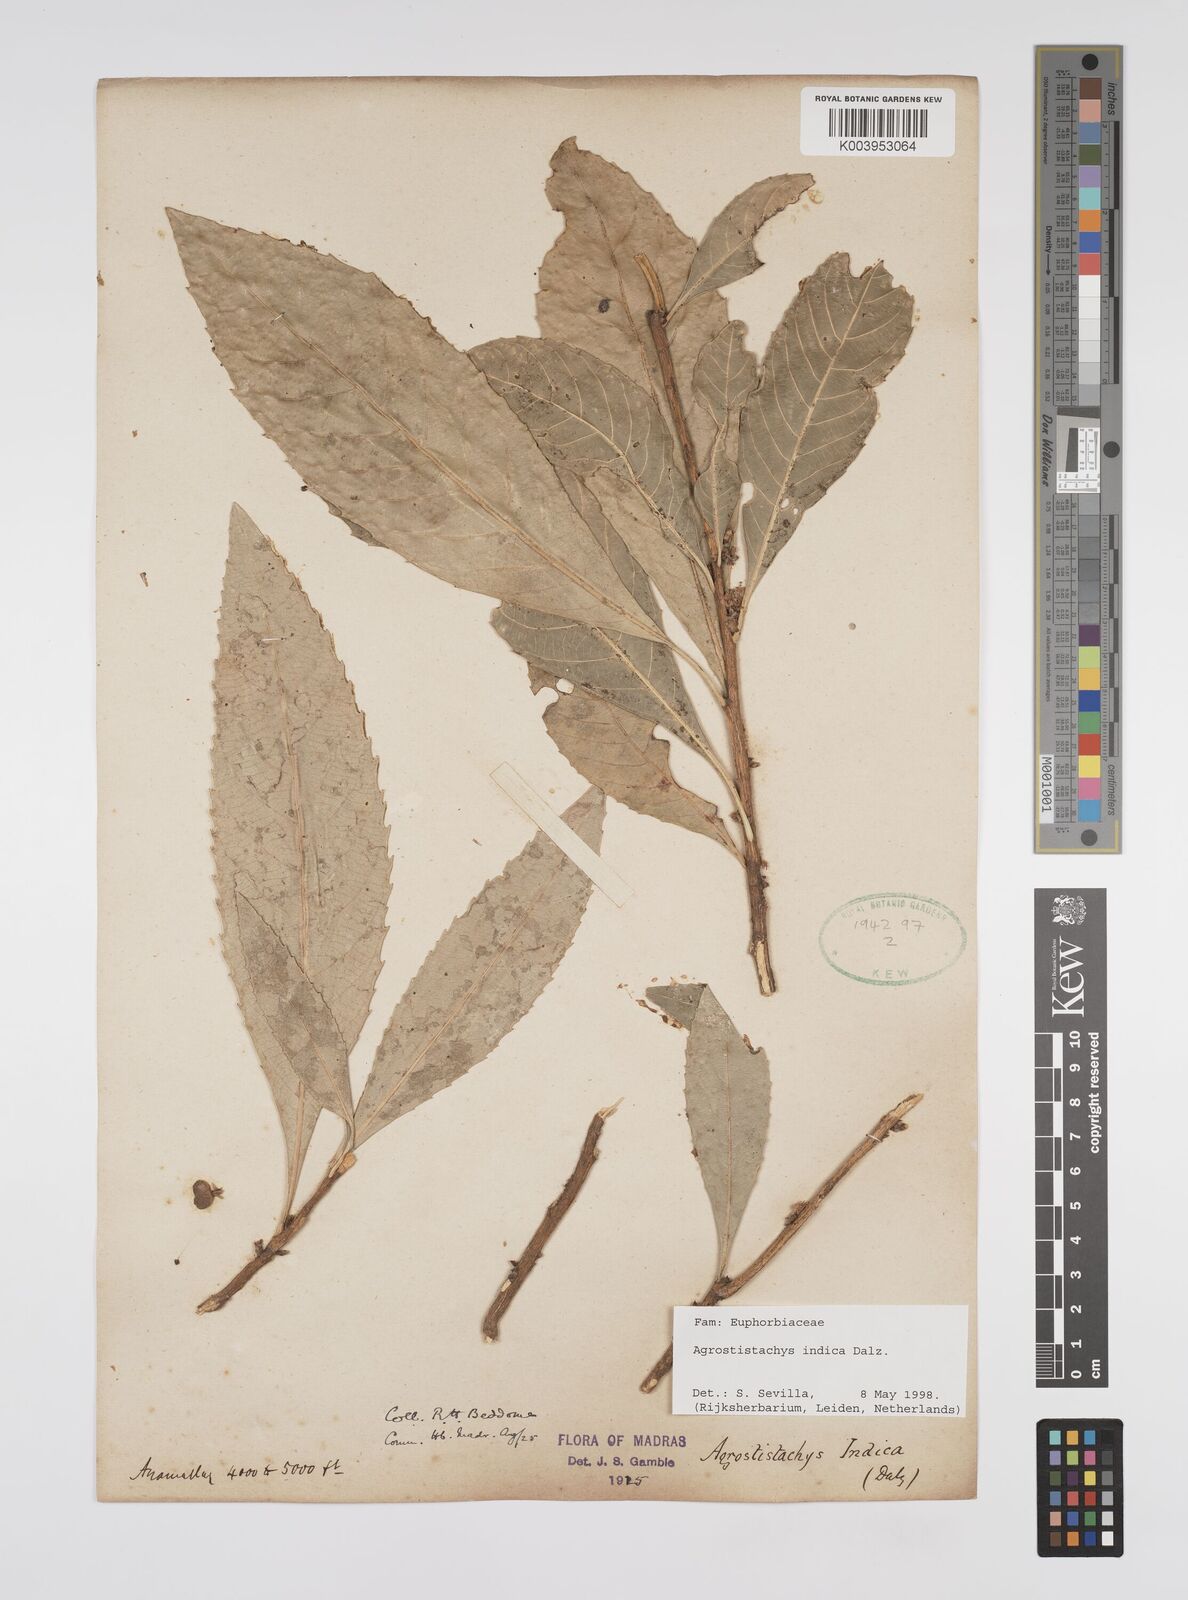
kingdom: Plantae
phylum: Tracheophyta
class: Magnoliopsida
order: Malpighiales
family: Euphorbiaceae
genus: Agrostistachys
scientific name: Agrostistachys indica
